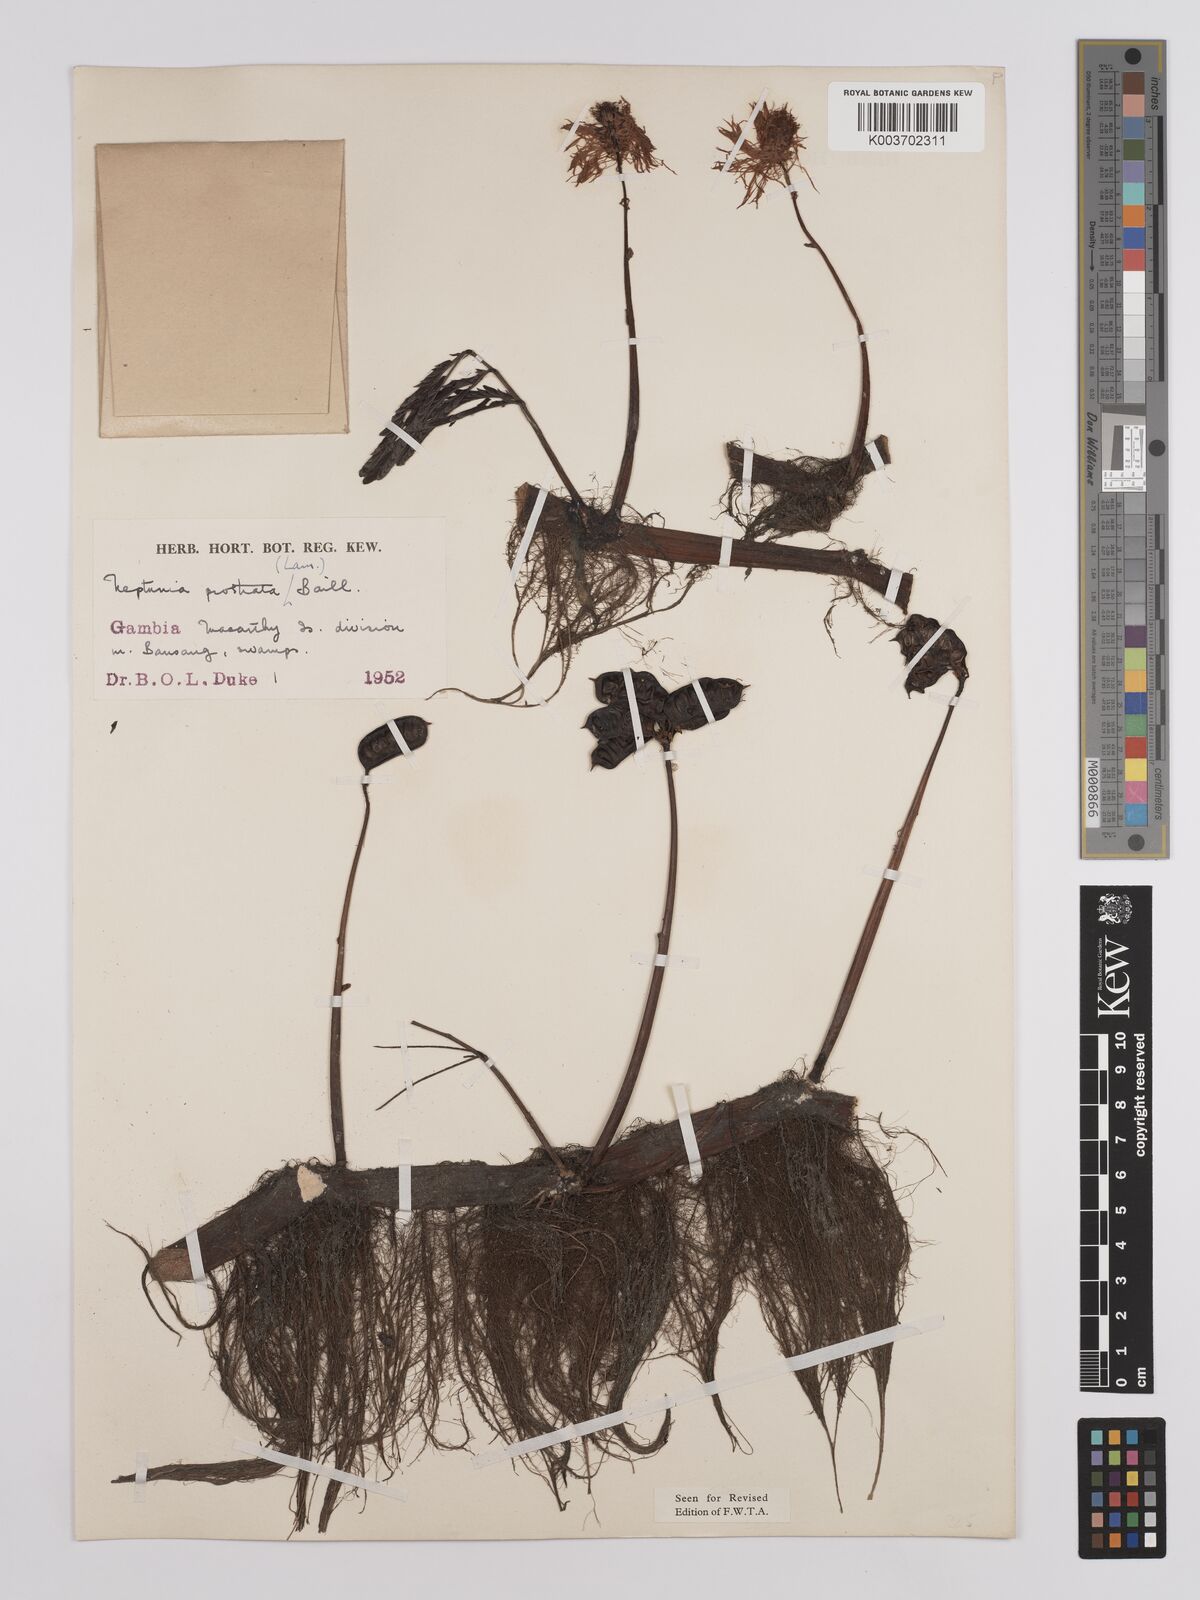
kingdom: Plantae
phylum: Tracheophyta
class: Magnoliopsida
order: Fabales
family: Fabaceae
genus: Neptunia
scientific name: Neptunia prostrata
